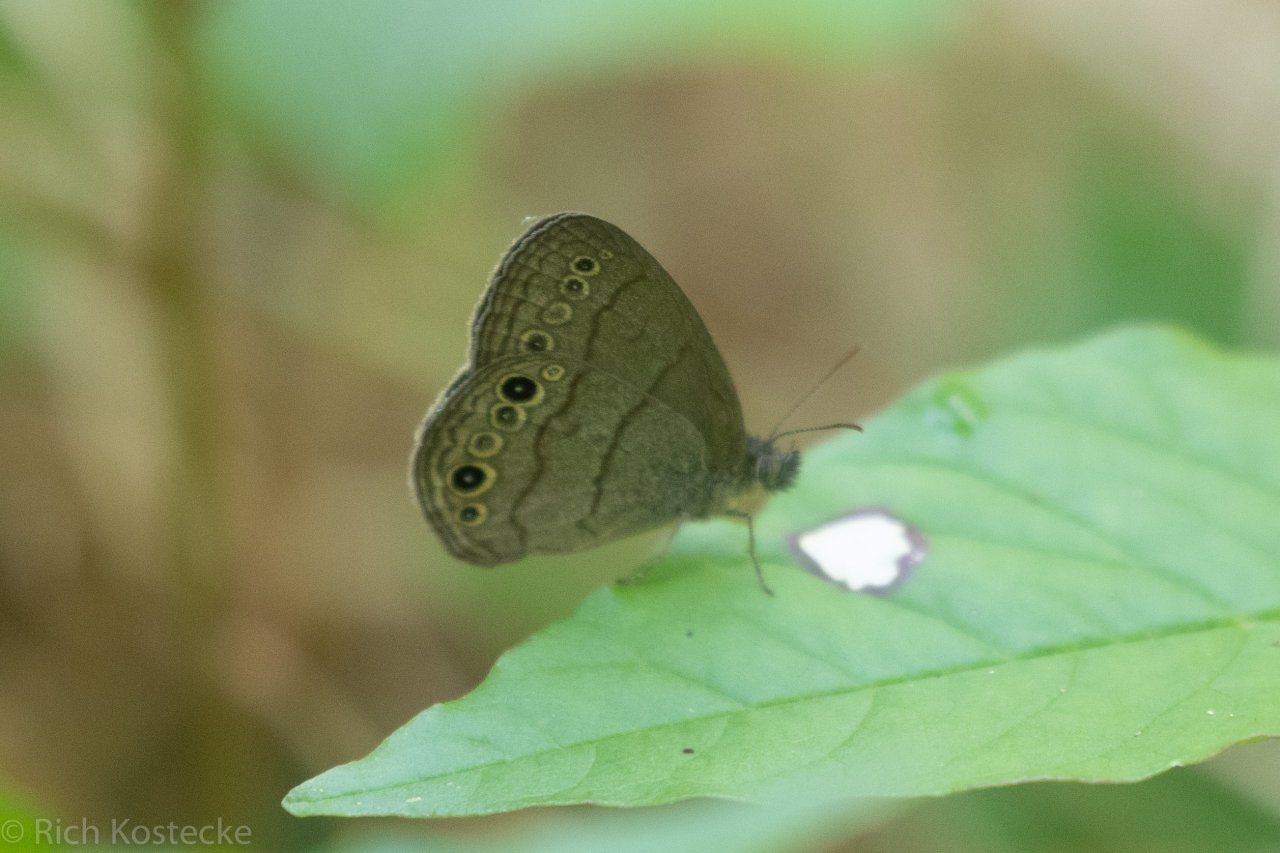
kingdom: Animalia
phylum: Arthropoda
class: Insecta
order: Lepidoptera
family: Nymphalidae
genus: Hermeuptychia
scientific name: Hermeuptychia hermes
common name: Carolina Satyr
